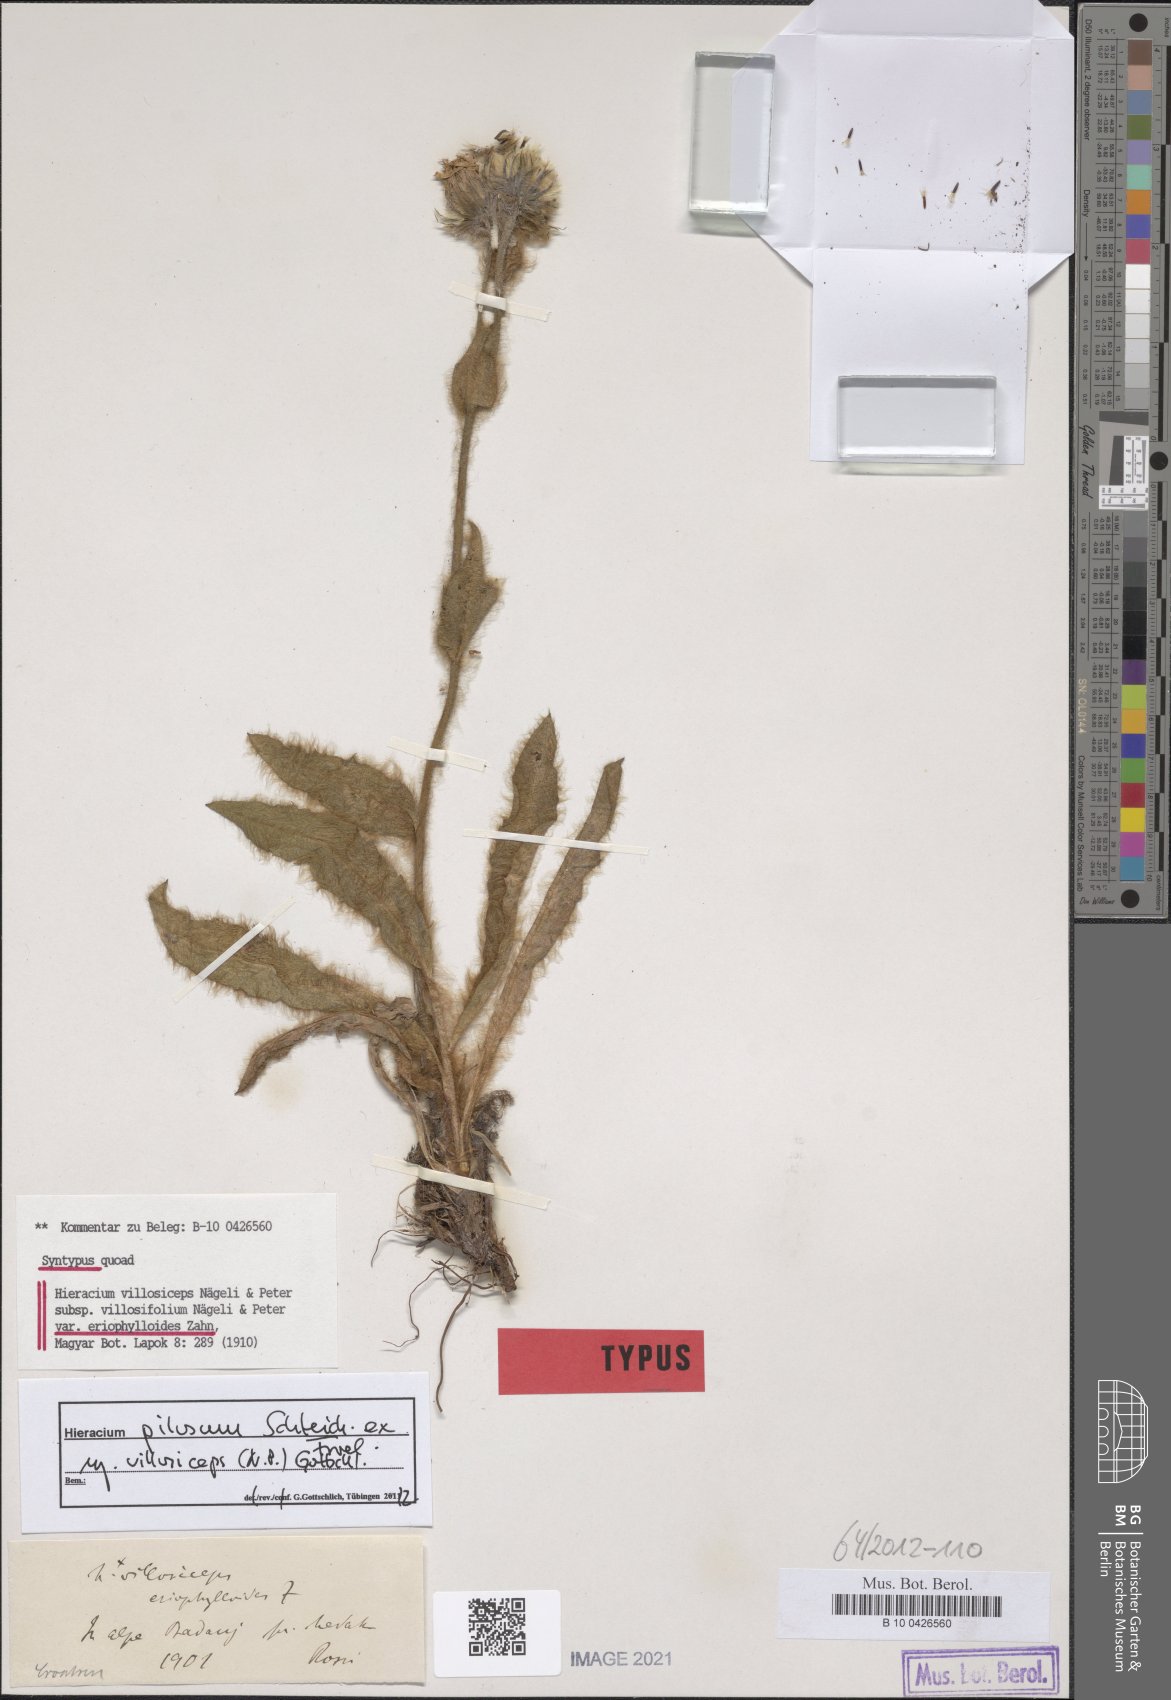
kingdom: Plantae
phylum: Tracheophyta
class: Magnoliopsida
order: Asterales
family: Asteraceae
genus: Hieracium
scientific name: Hieracium pilosum
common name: Fimbriate-pitted hawkweed
